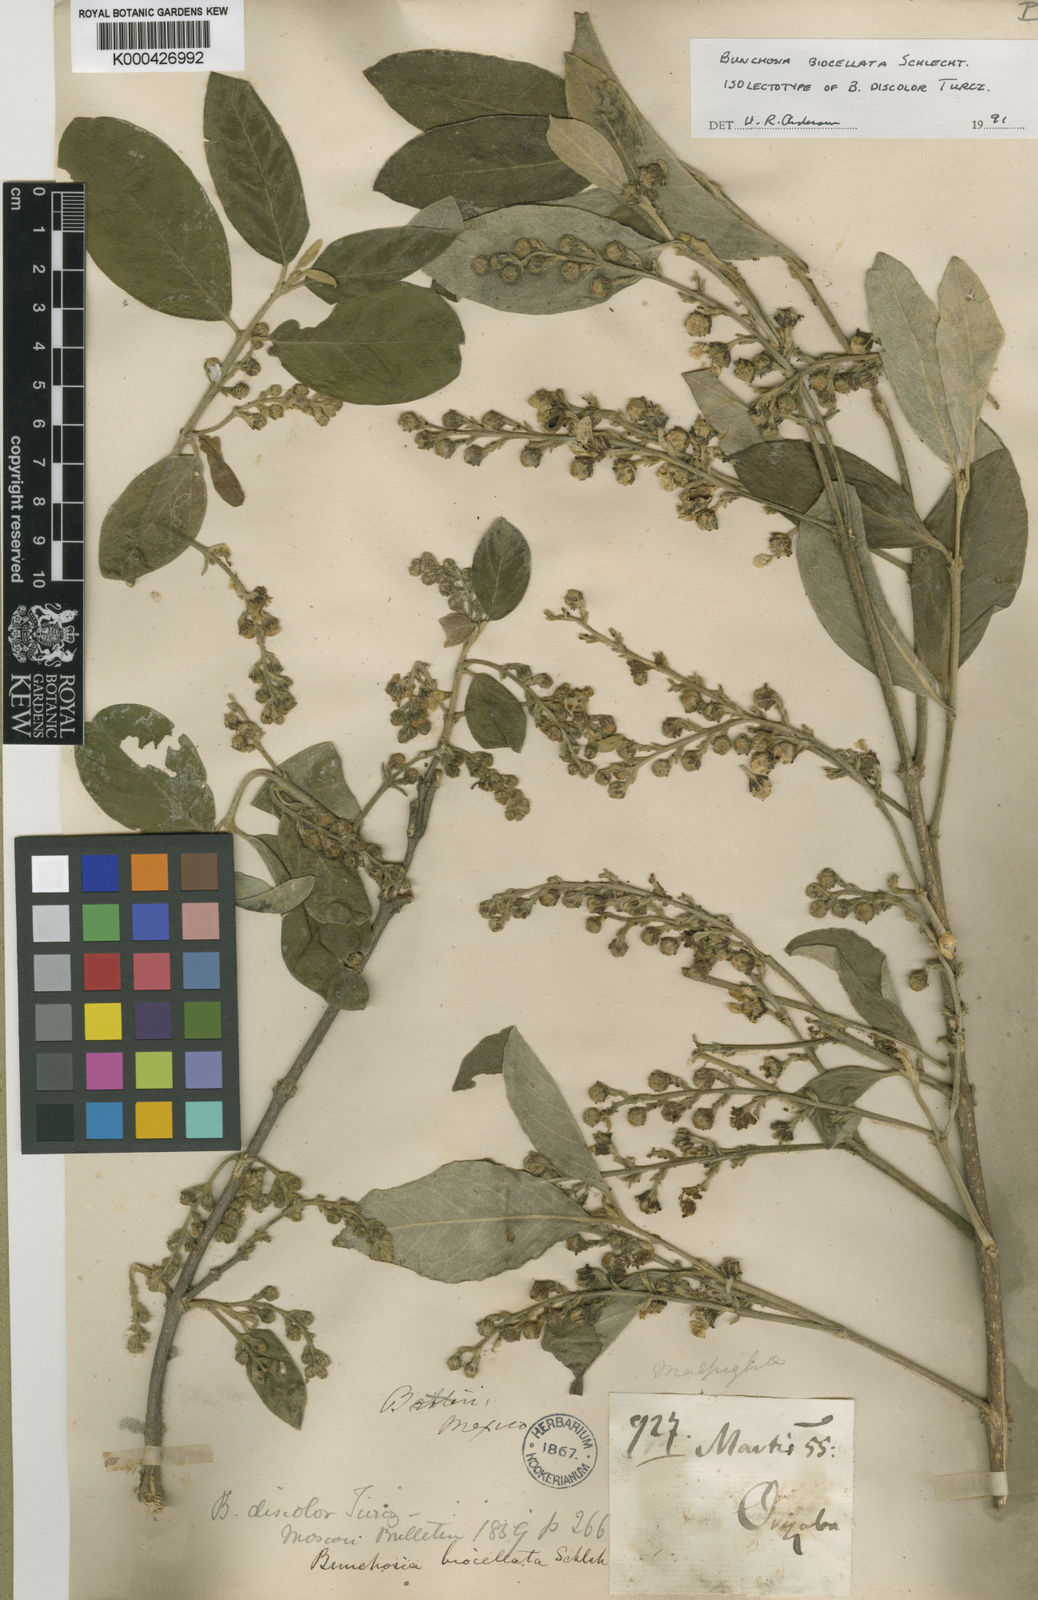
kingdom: Plantae
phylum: Tracheophyta
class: Magnoliopsida
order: Malpighiales
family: Malpighiaceae
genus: Bunchosia
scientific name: Bunchosia biocellata
